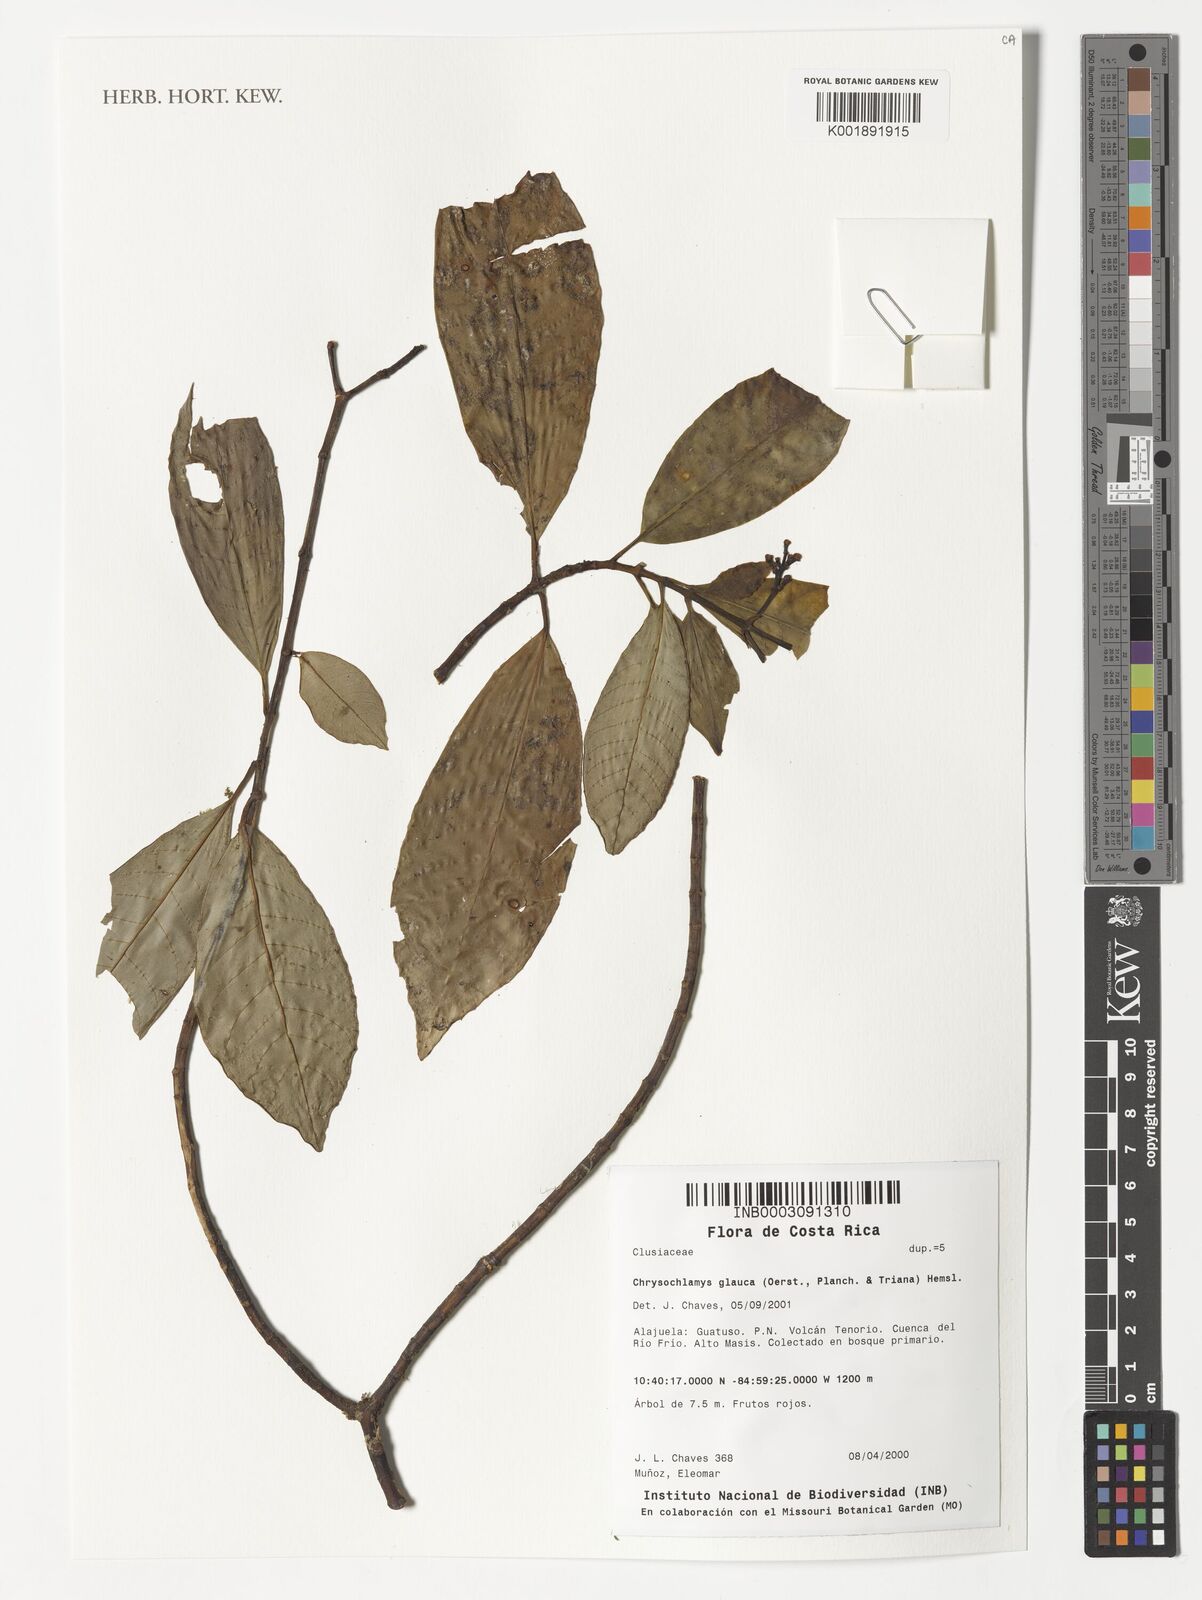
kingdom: Plantae
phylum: Tracheophyta
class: Magnoliopsida
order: Malpighiales
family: Clusiaceae
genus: Chrysochlamys
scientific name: Chrysochlamys glauca
